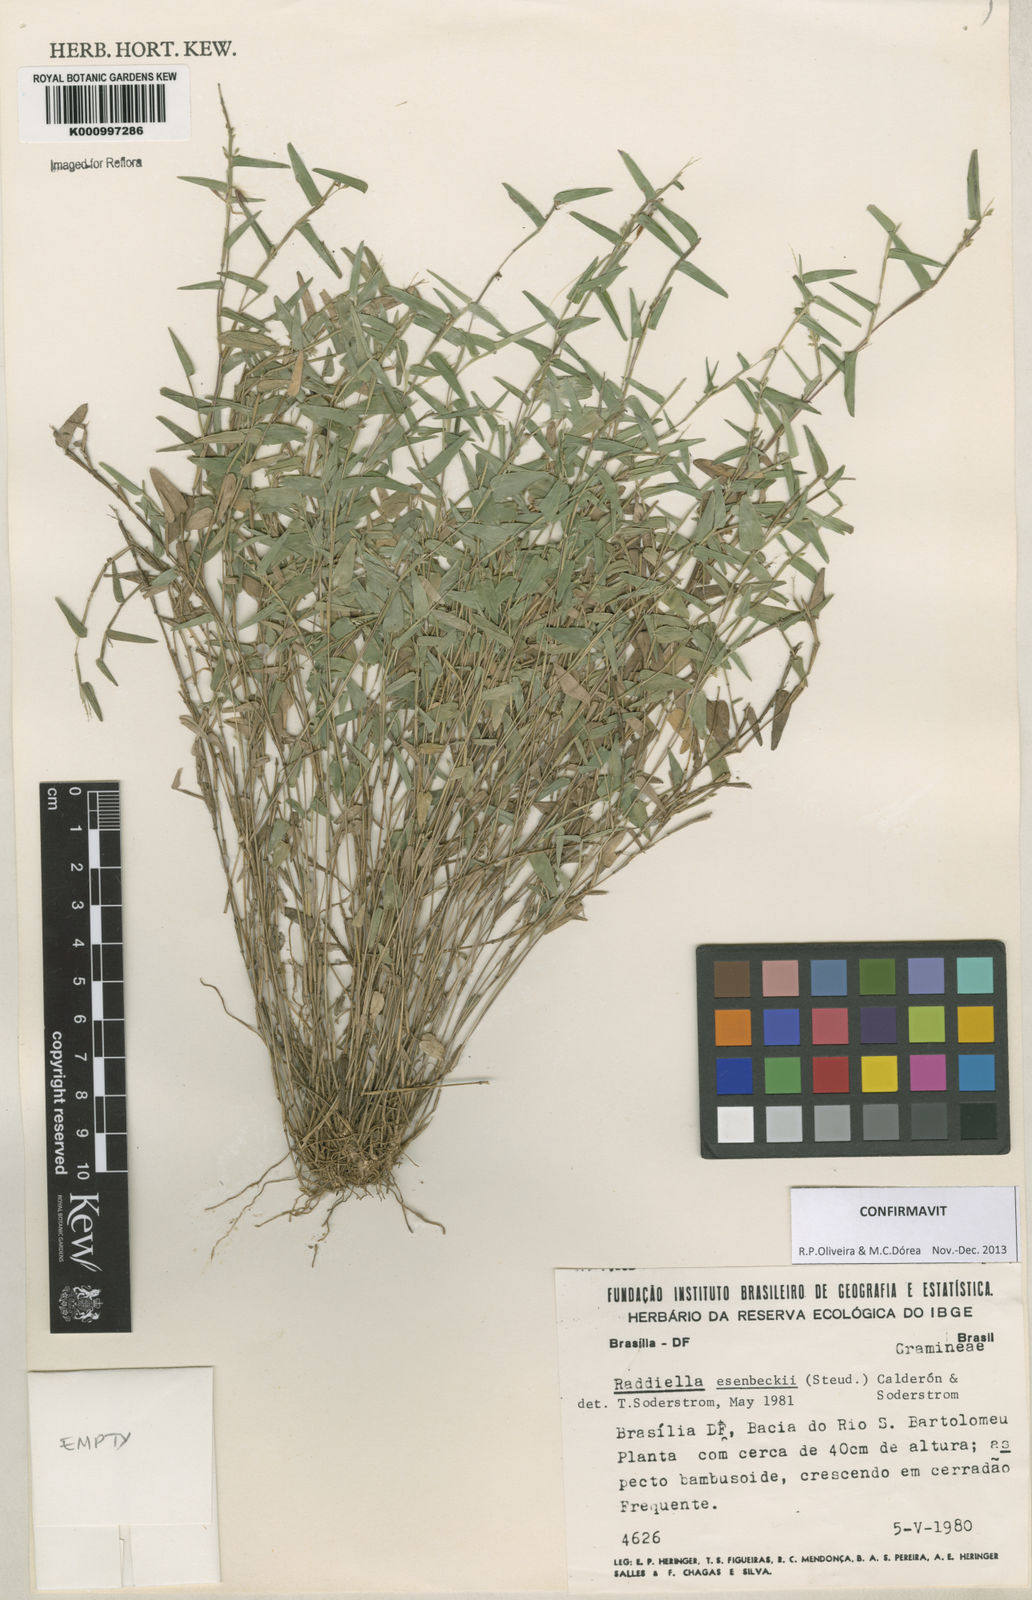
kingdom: Plantae
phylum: Tracheophyta
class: Liliopsida
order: Poales
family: Poaceae
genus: Raddiella
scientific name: Raddiella
